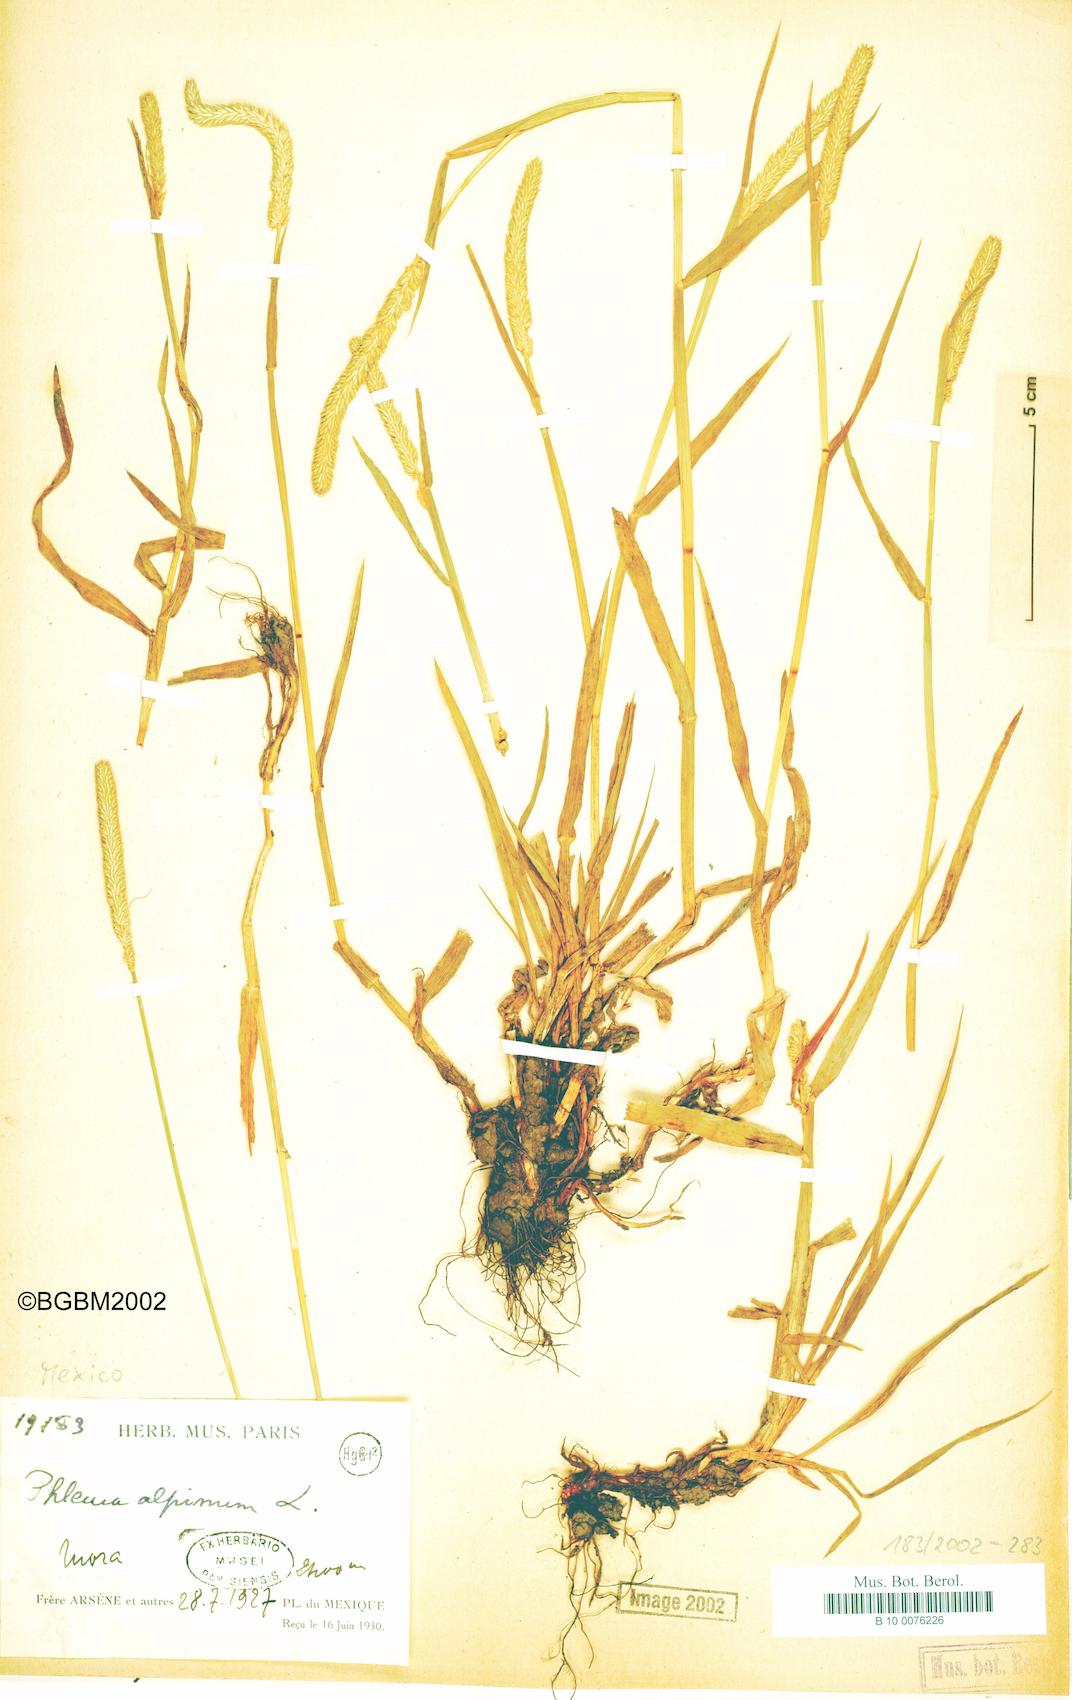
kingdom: Plantae
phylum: Tracheophyta
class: Liliopsida
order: Poales
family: Poaceae
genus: Phleum
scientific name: Phleum alpinum
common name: Alpine cat's-tail
